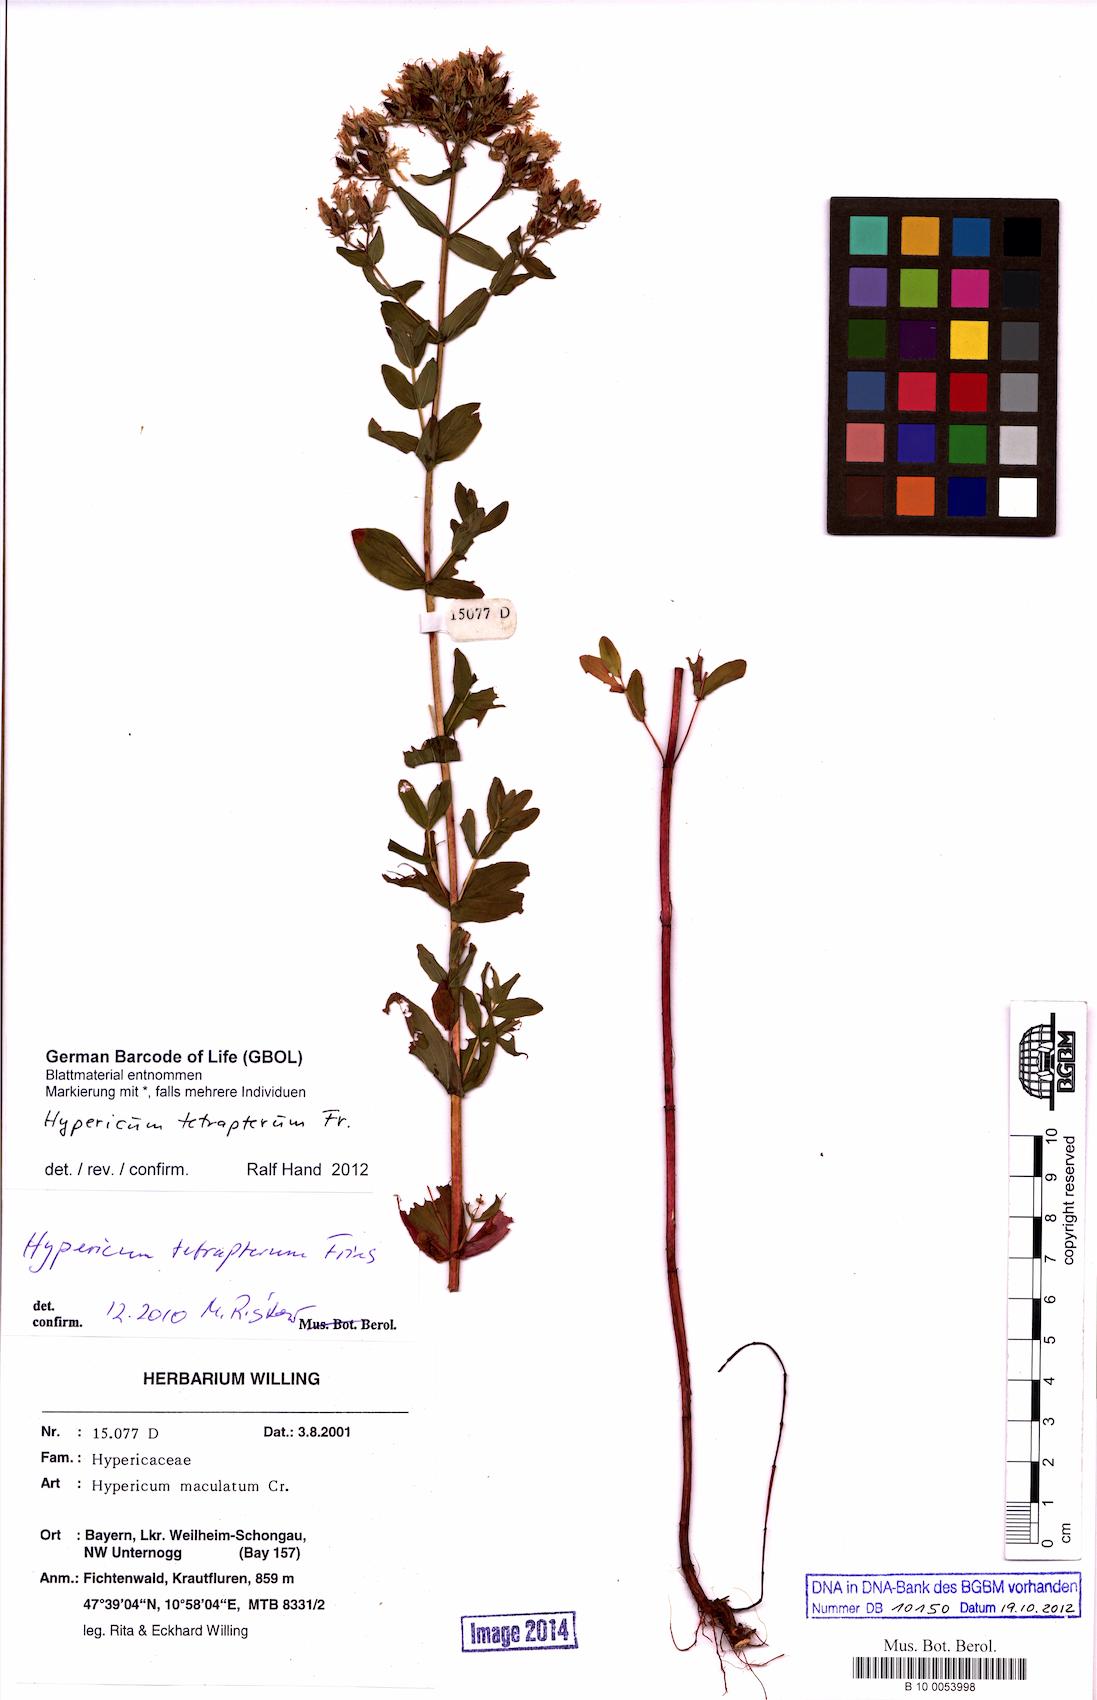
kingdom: Plantae
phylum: Tracheophyta
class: Magnoliopsida
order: Malpighiales
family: Hypericaceae
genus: Hypericum
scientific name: Hypericum tetrapterum
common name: Square-stalked st. john's-wort
